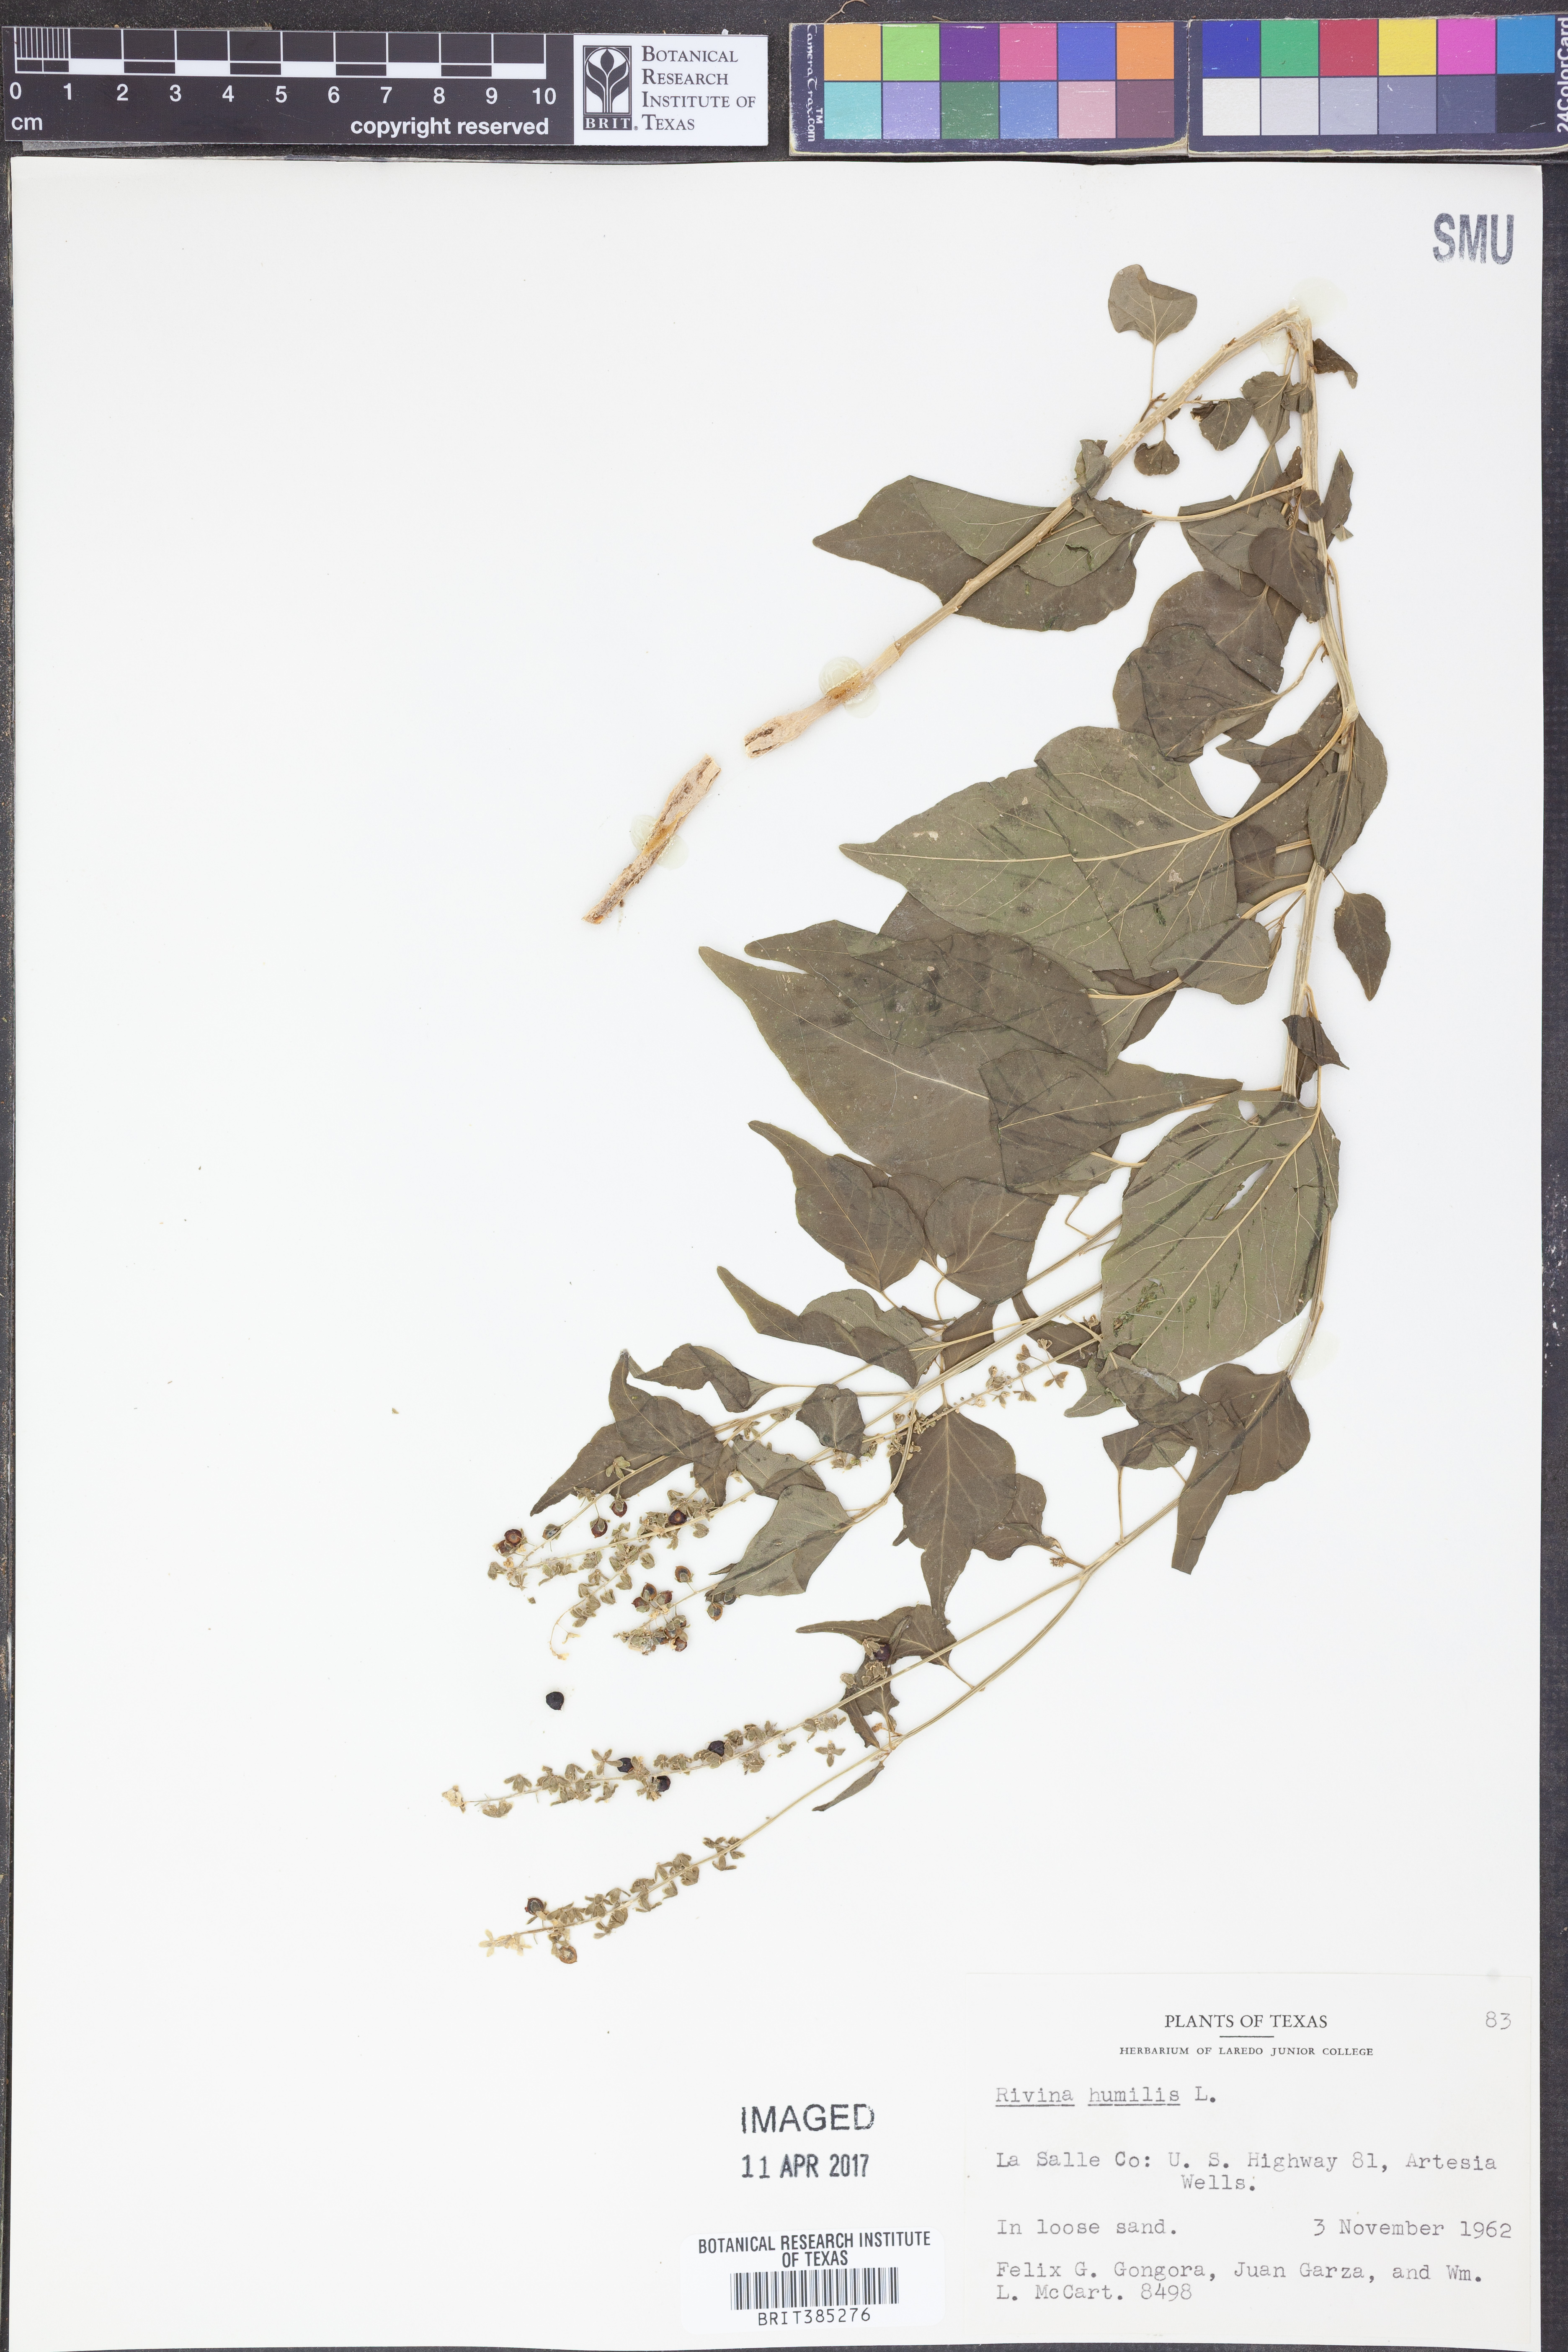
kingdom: Plantae
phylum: Tracheophyta
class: Magnoliopsida
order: Caryophyllales
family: Phytolaccaceae
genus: Rivina
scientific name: Rivina humilis
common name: Rougeplant
